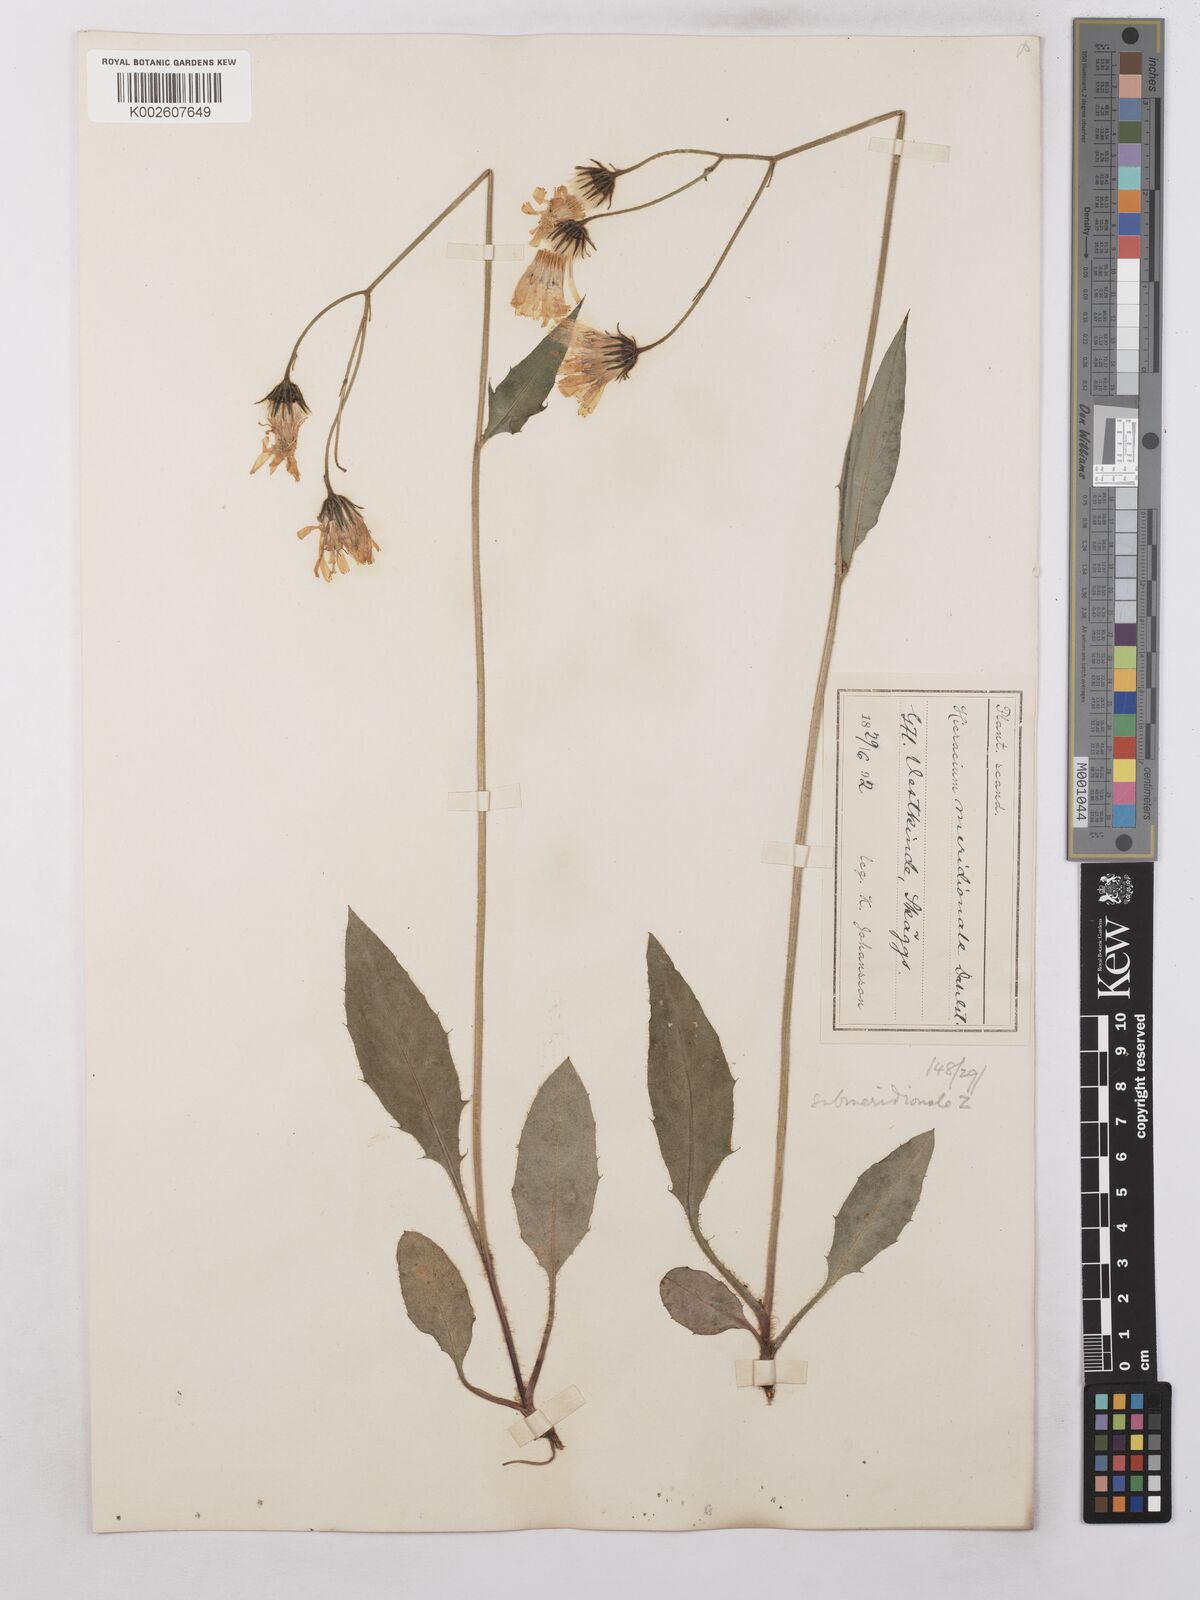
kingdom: Plantae
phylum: Tracheophyta
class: Magnoliopsida
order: Asterales
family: Asteraceae
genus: Hieracium
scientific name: Hieracium subramosum
